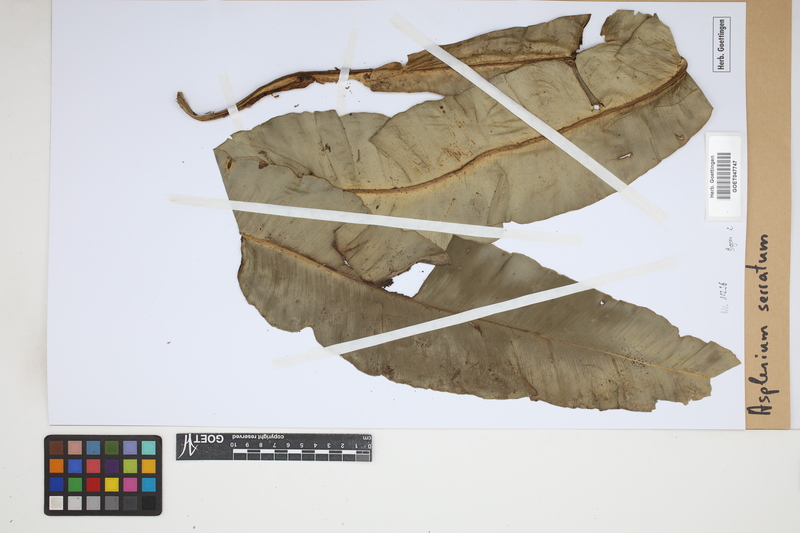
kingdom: Plantae
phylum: Tracheophyta
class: Polypodiopsida
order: Polypodiales
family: Aspleniaceae
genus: Asplenium
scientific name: Asplenium serratum
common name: Wild birdnest fern
